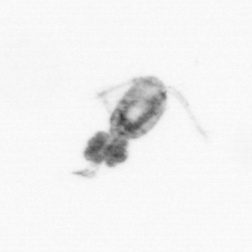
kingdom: Animalia
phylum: Arthropoda
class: Copepoda
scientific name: Copepoda
